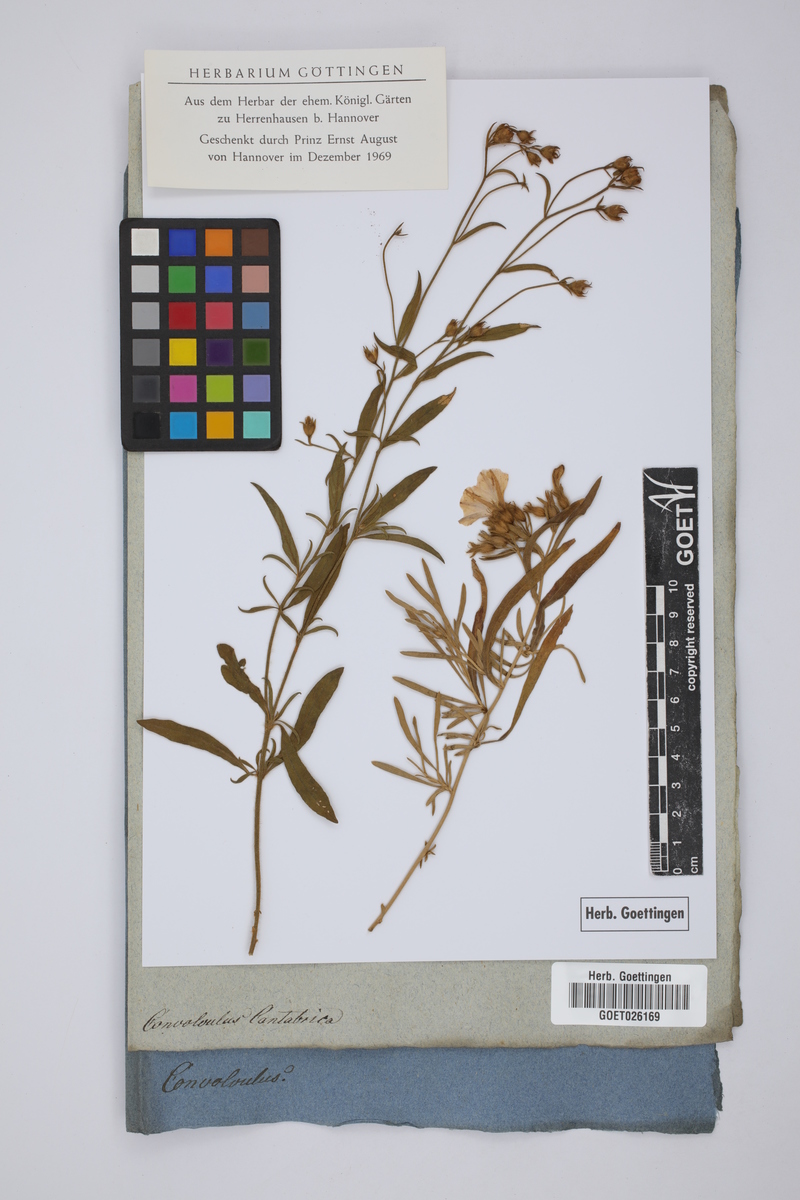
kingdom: Plantae
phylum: Tracheophyta
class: Magnoliopsida
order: Solanales
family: Convolvulaceae
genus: Convolvulus
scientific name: Convolvulus cantabrica
